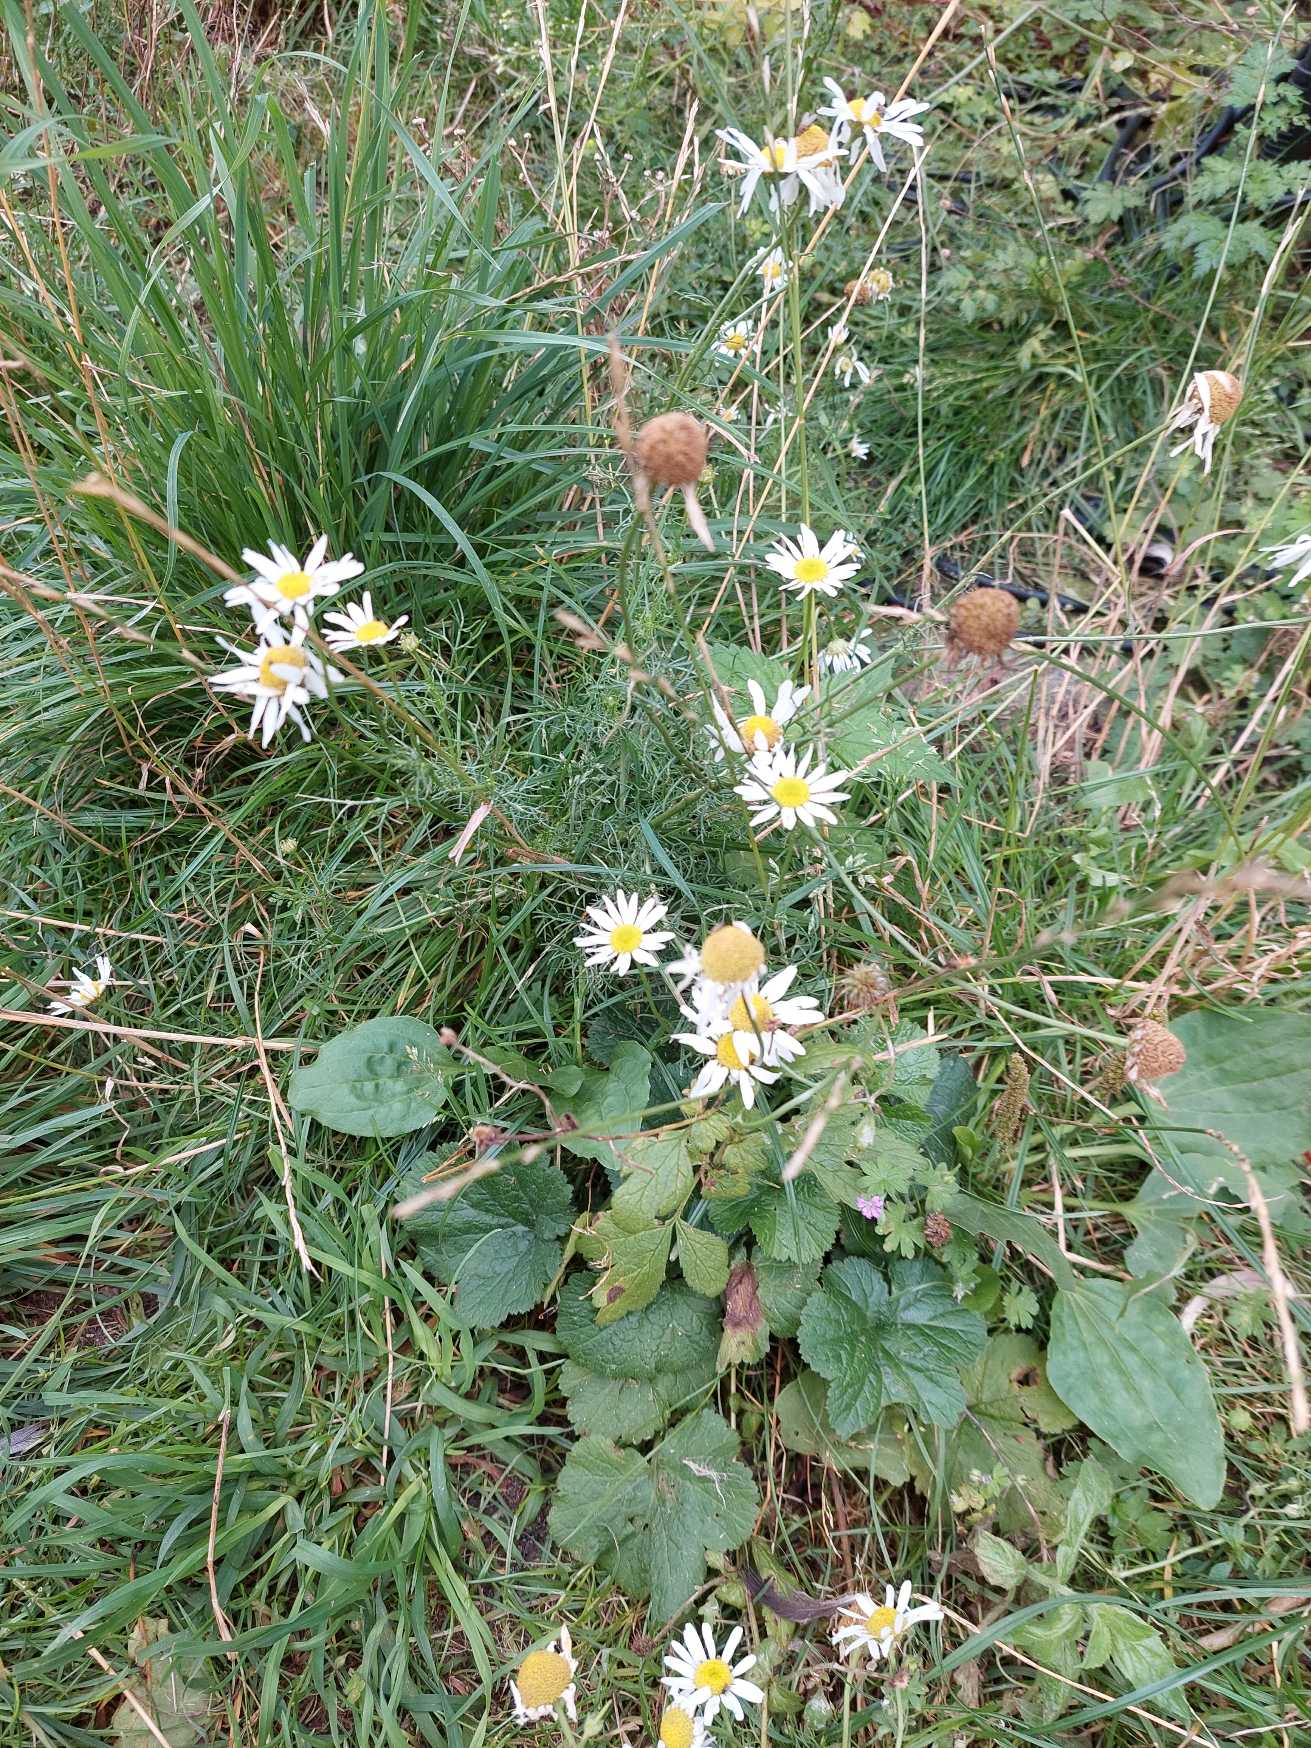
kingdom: Plantae
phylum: Tracheophyta
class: Magnoliopsida
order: Asterales
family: Asteraceae
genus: Tripleurospermum
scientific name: Tripleurospermum inodorum
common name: Lugtløs kamille
